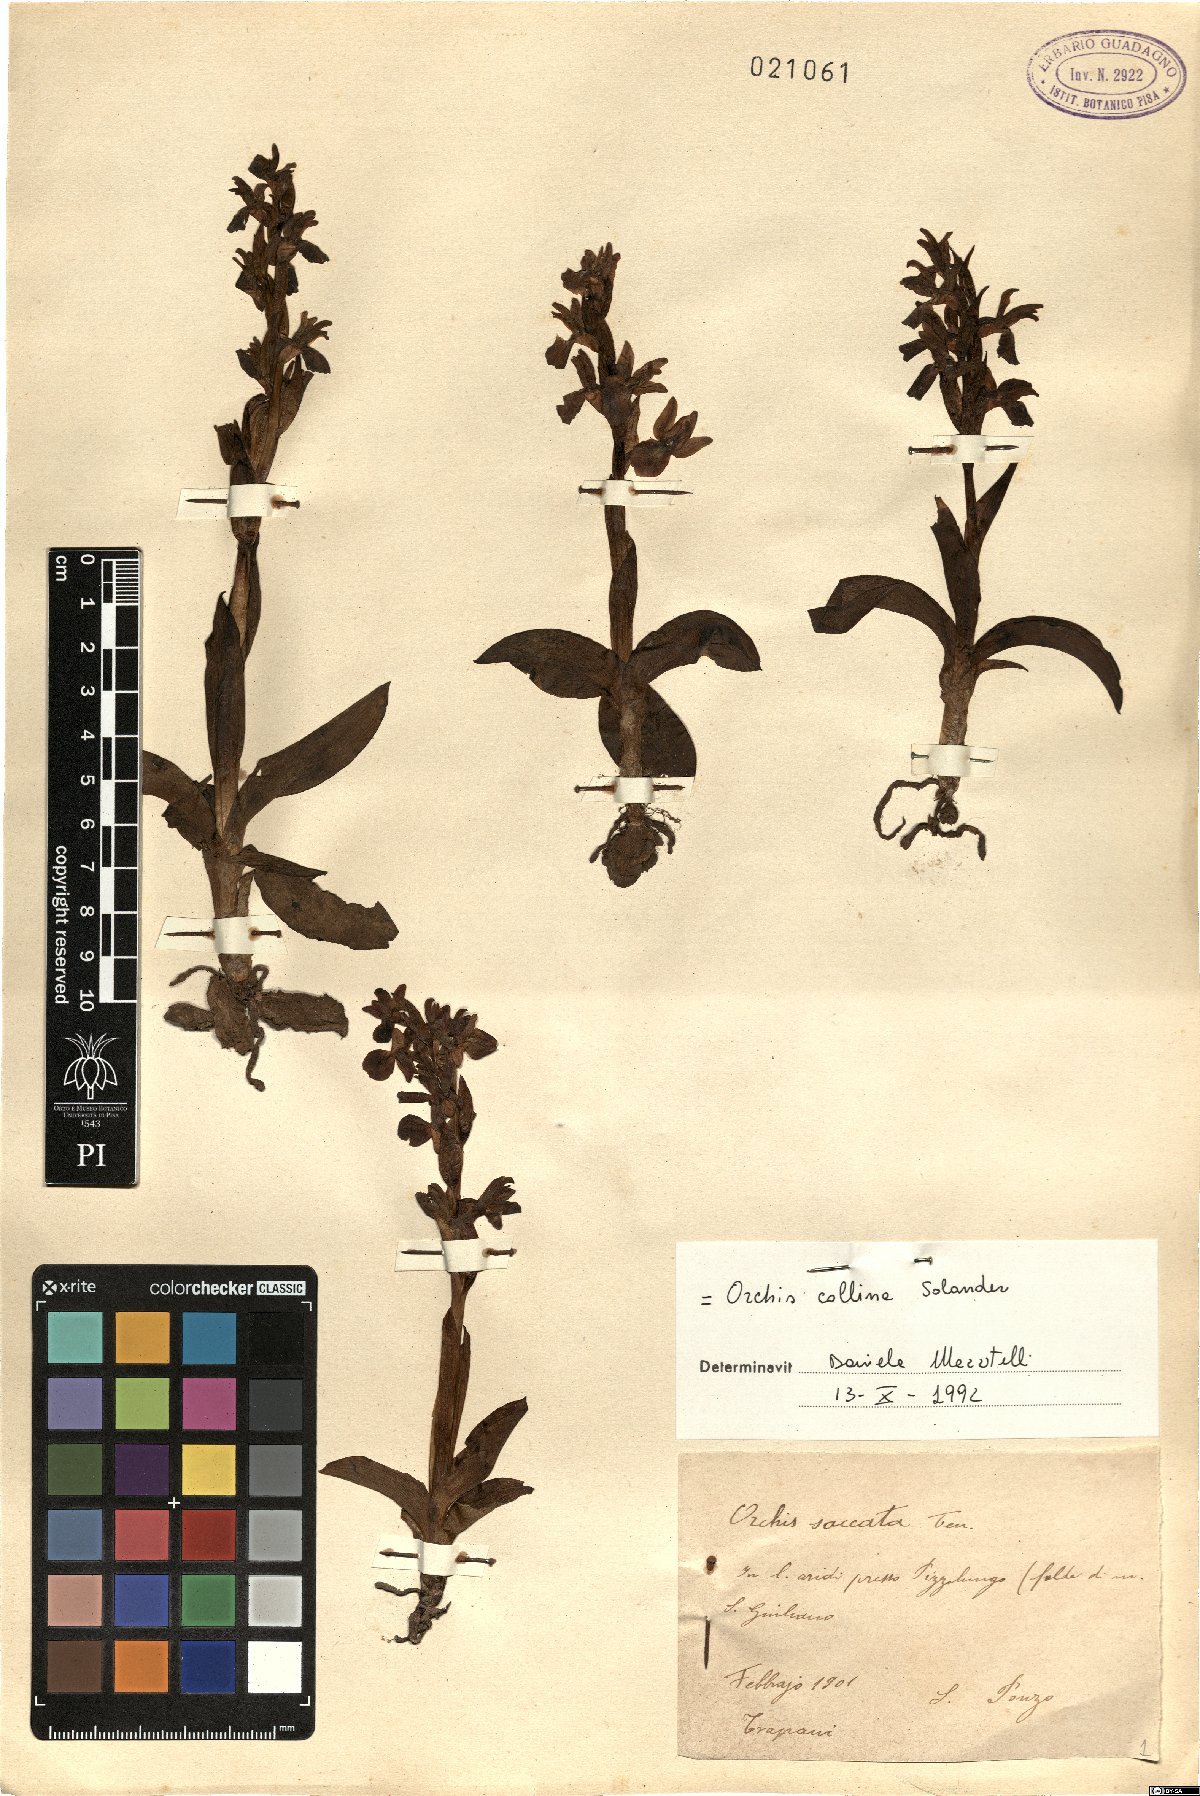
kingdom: Plantae
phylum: Tracheophyta
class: Liliopsida
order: Asparagales
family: Orchidaceae
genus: Anacamptis
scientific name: Anacamptis collina
